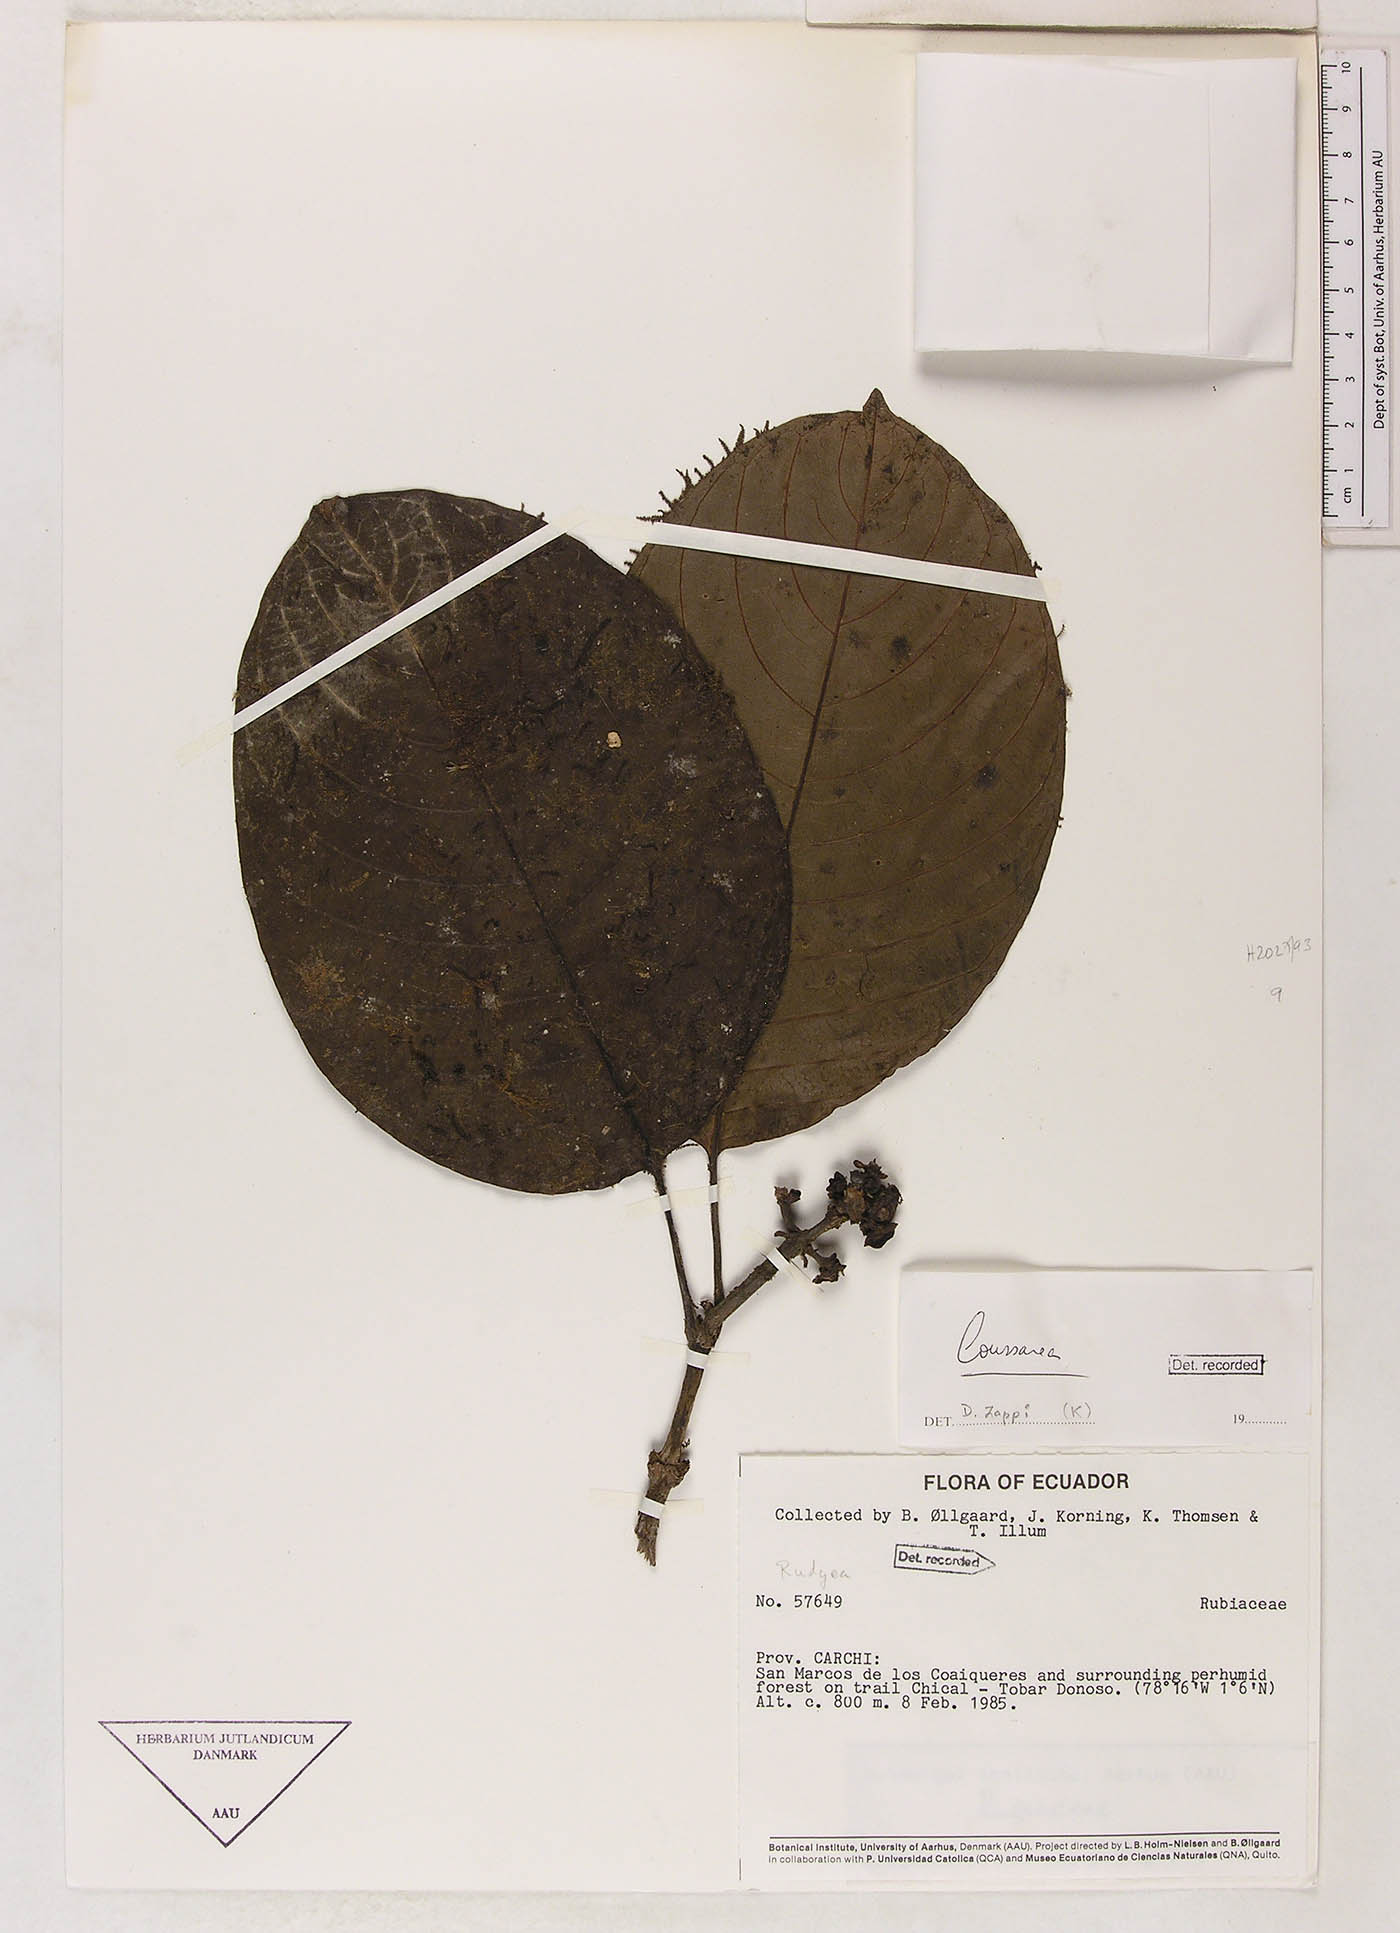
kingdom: Plantae
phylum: Tracheophyta
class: Magnoliopsida
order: Gentianales
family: Rubiaceae
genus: Coussarea
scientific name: Coussarea
